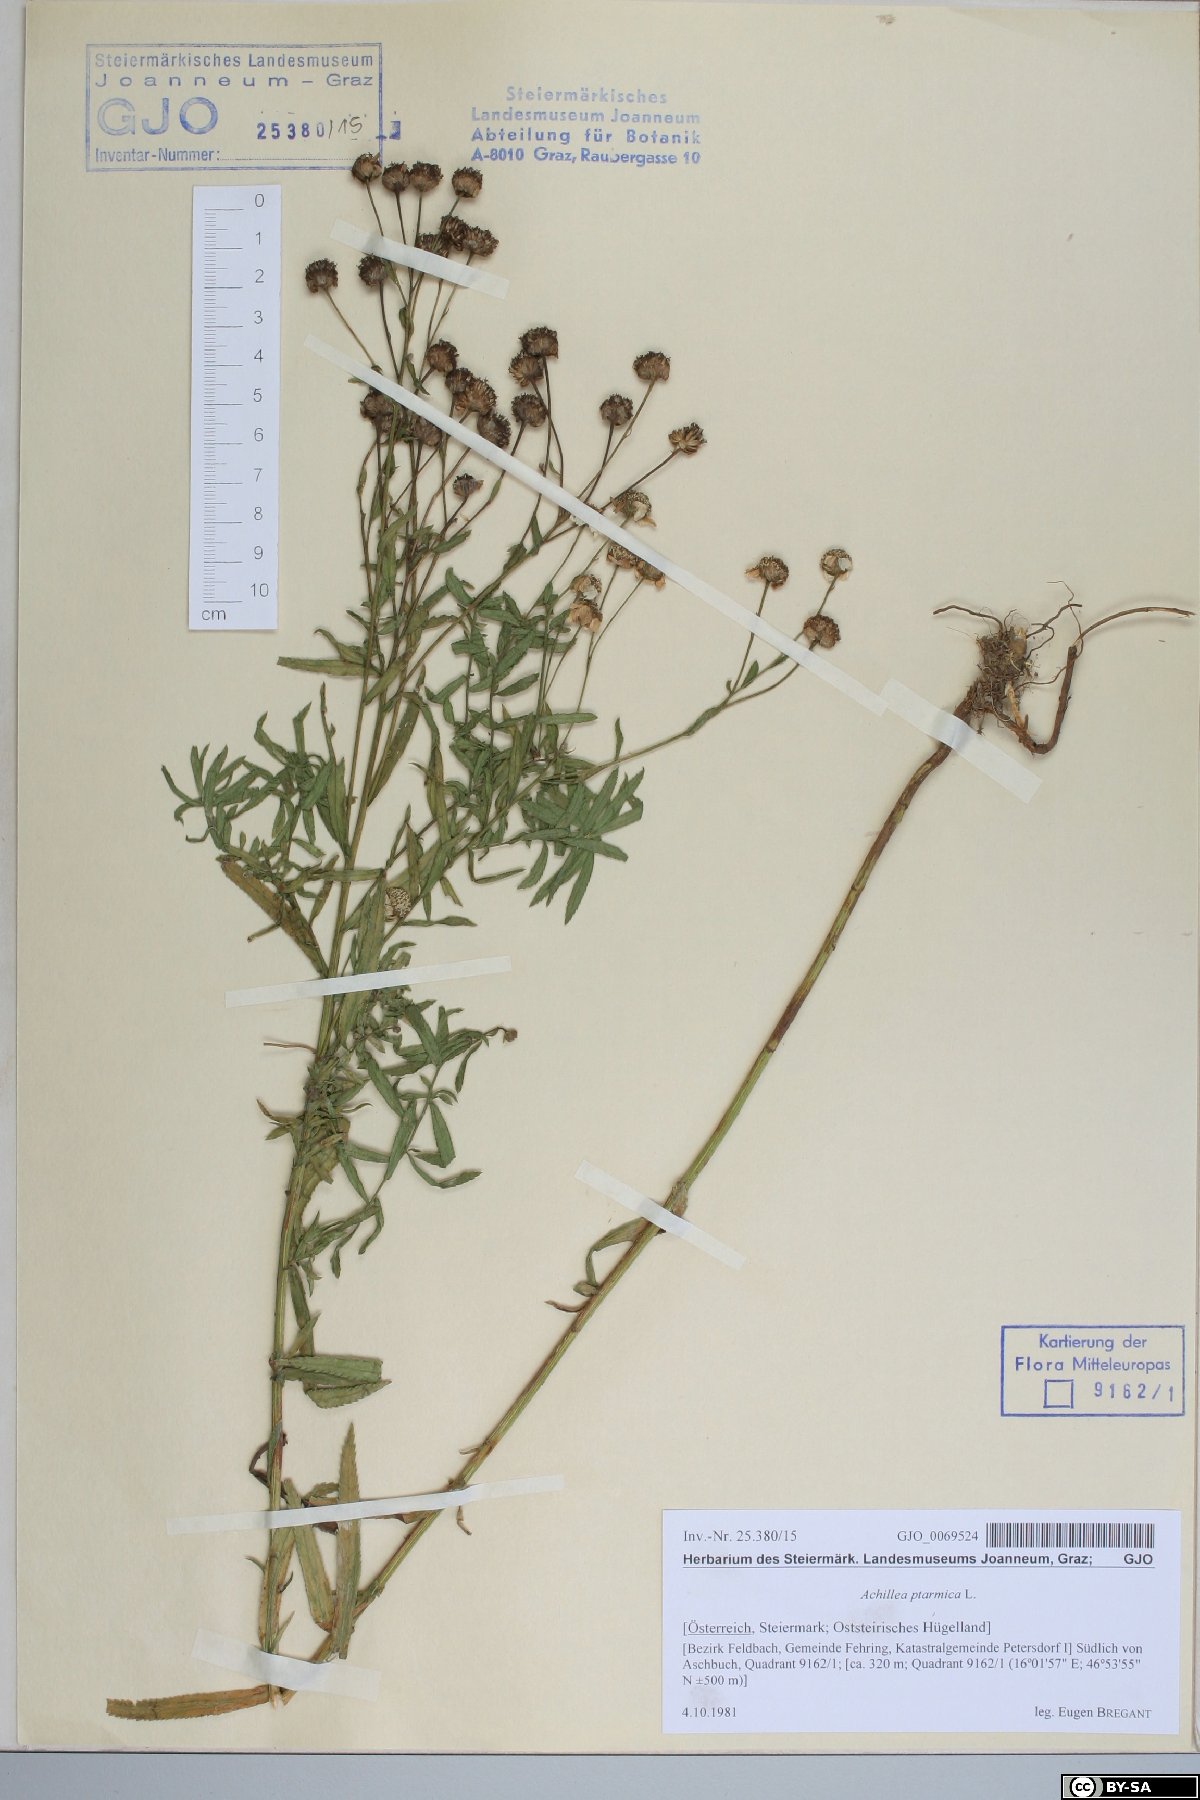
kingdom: Plantae
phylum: Tracheophyta
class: Magnoliopsida
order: Asterales
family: Asteraceae
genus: Achillea
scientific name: Achillea ptarmica
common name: Sneezeweed
